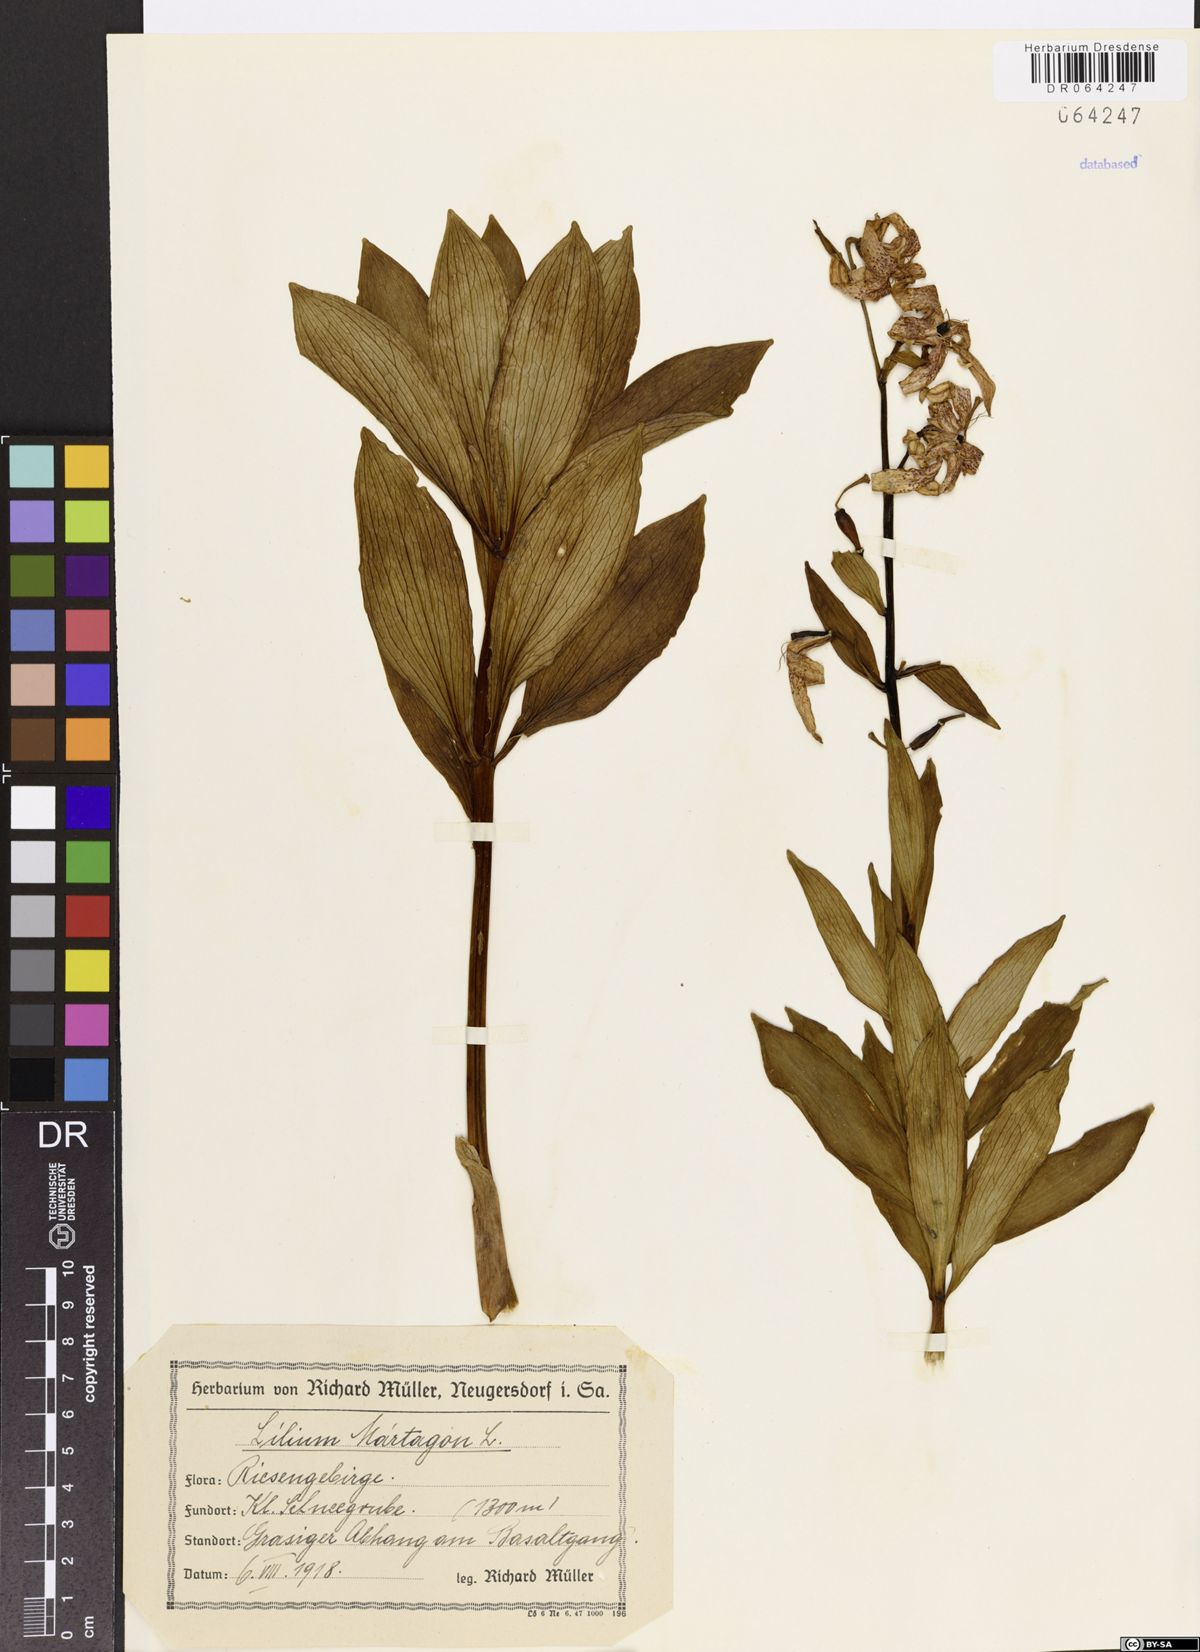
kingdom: Plantae
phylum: Tracheophyta
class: Liliopsida
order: Liliales
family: Liliaceae
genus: Lilium
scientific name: Lilium martagon
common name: Martagon lily
